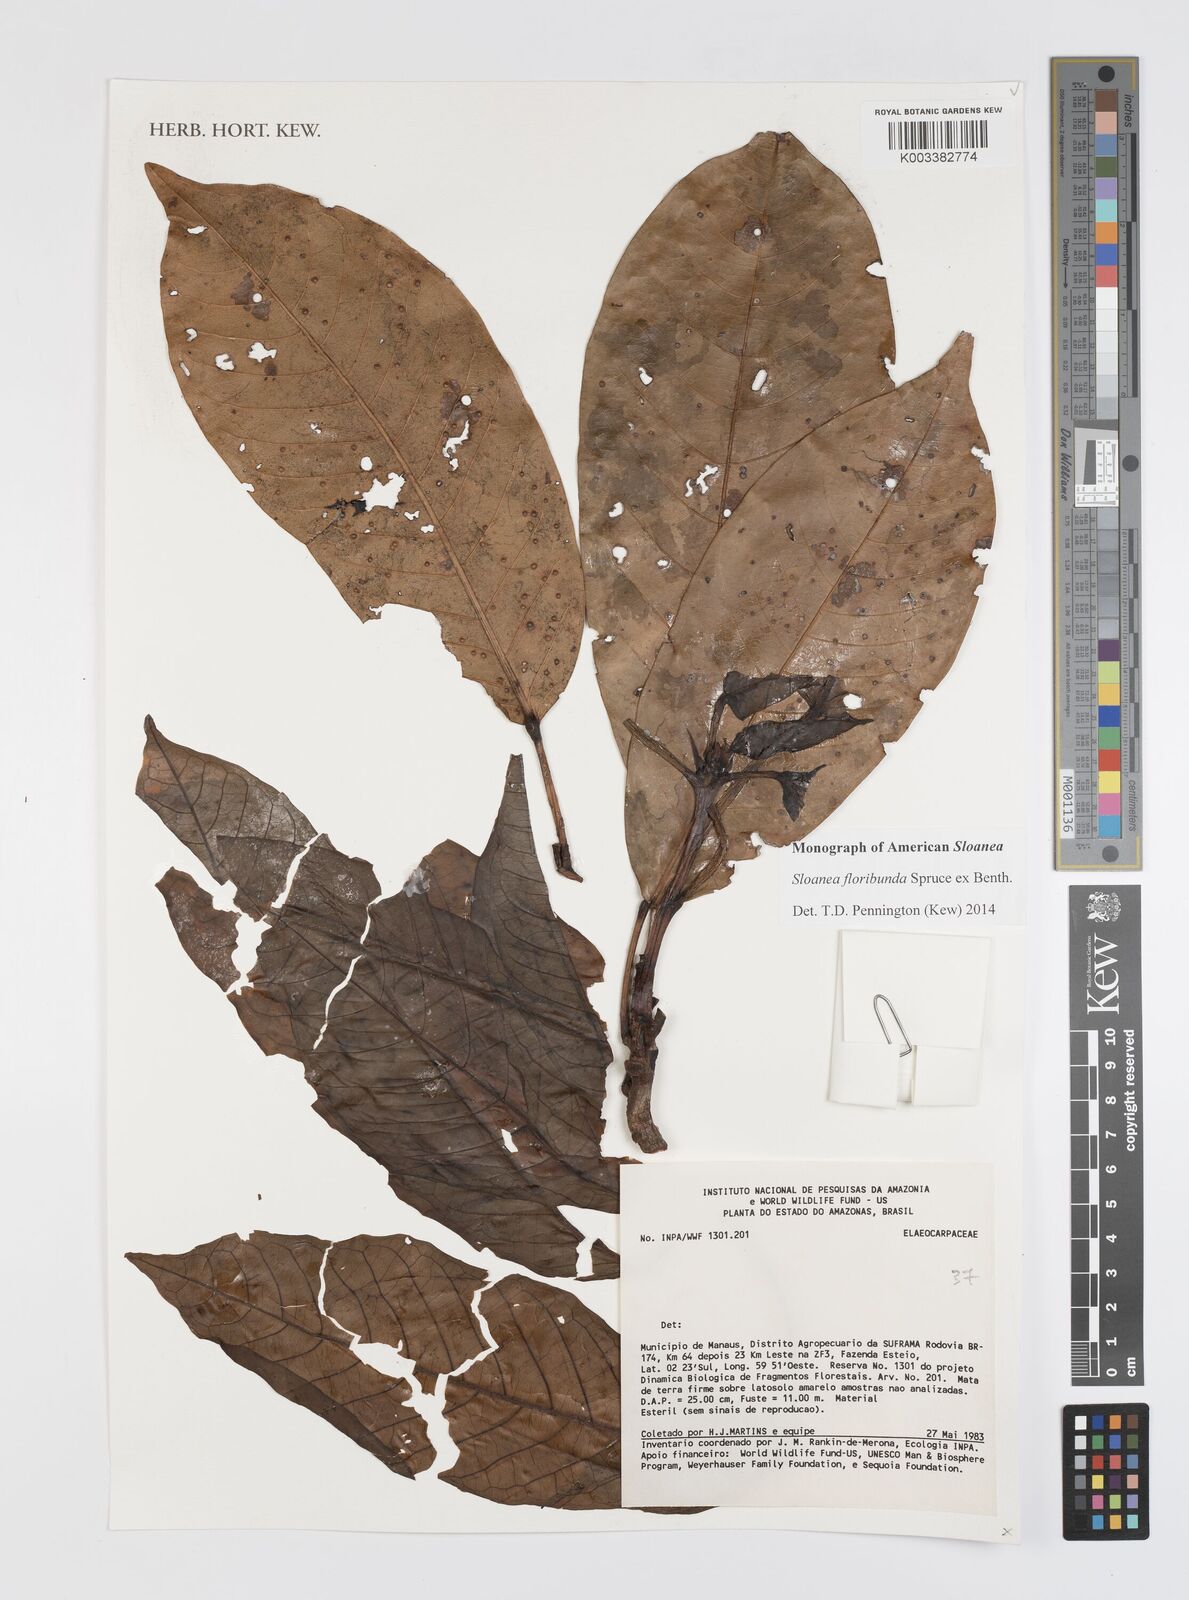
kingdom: Plantae
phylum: Tracheophyta
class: Magnoliopsida
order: Oxalidales
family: Elaeocarpaceae
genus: Sloanea
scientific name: Sloanea floribunda
